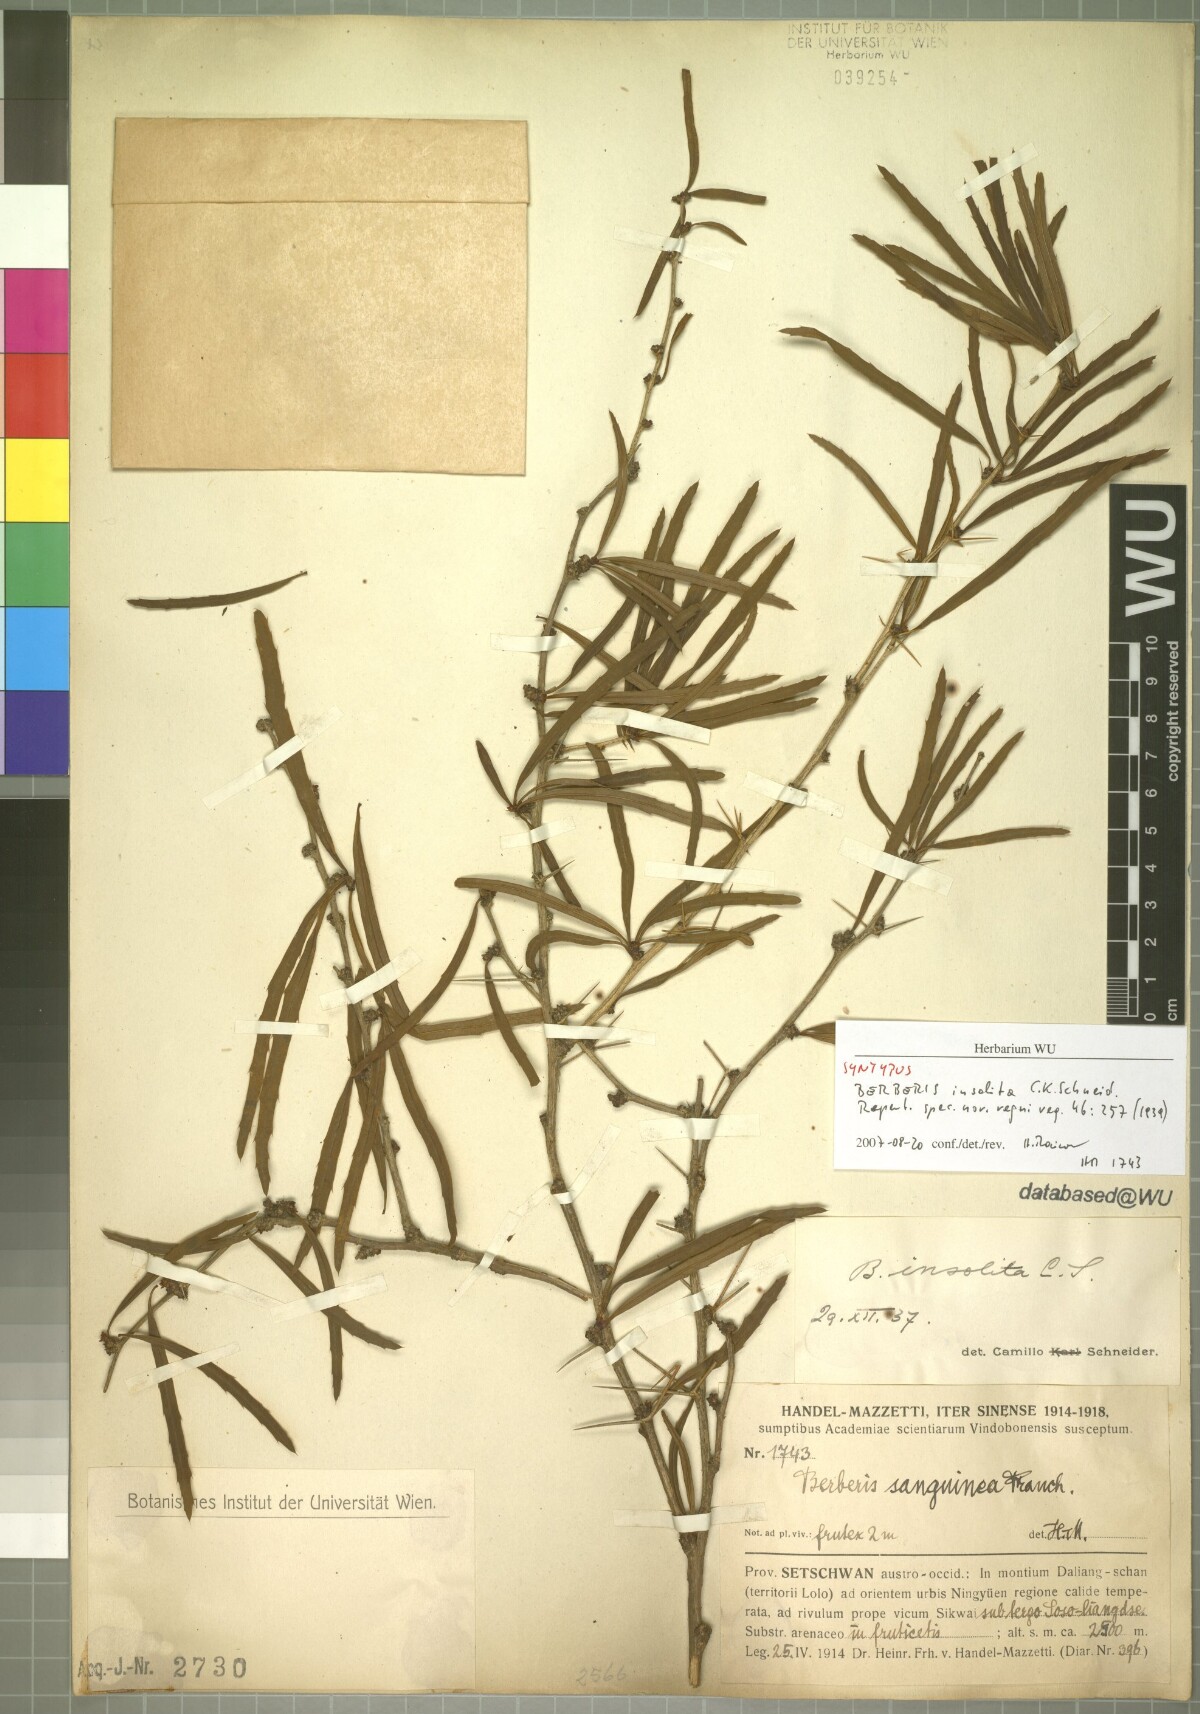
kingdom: Plantae
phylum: Tracheophyta
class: Magnoliopsida
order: Ranunculales
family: Berberidaceae
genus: Berberis
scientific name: Berberis insolita
